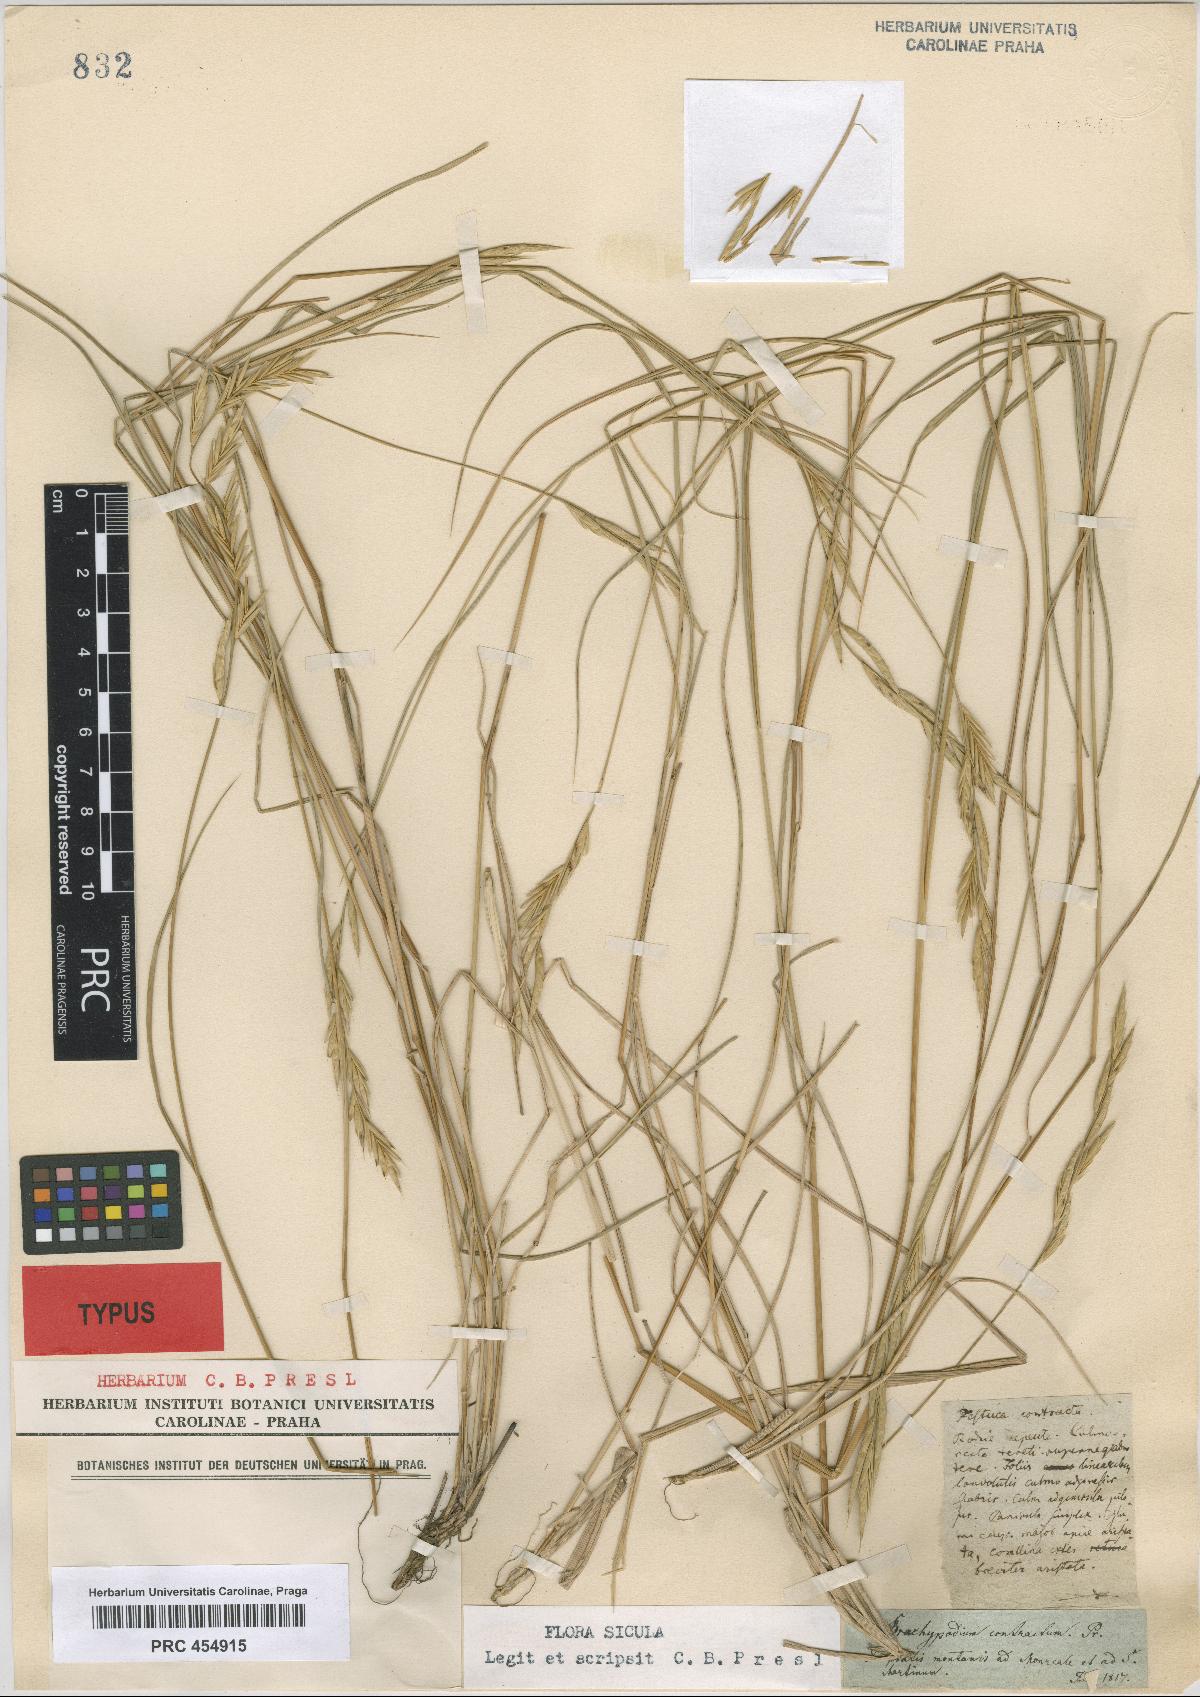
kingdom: Plantae
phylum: Tracheophyta
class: Liliopsida
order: Poales
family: Poaceae
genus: Brachypodium
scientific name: Brachypodium pinnatum
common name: Tor grass
